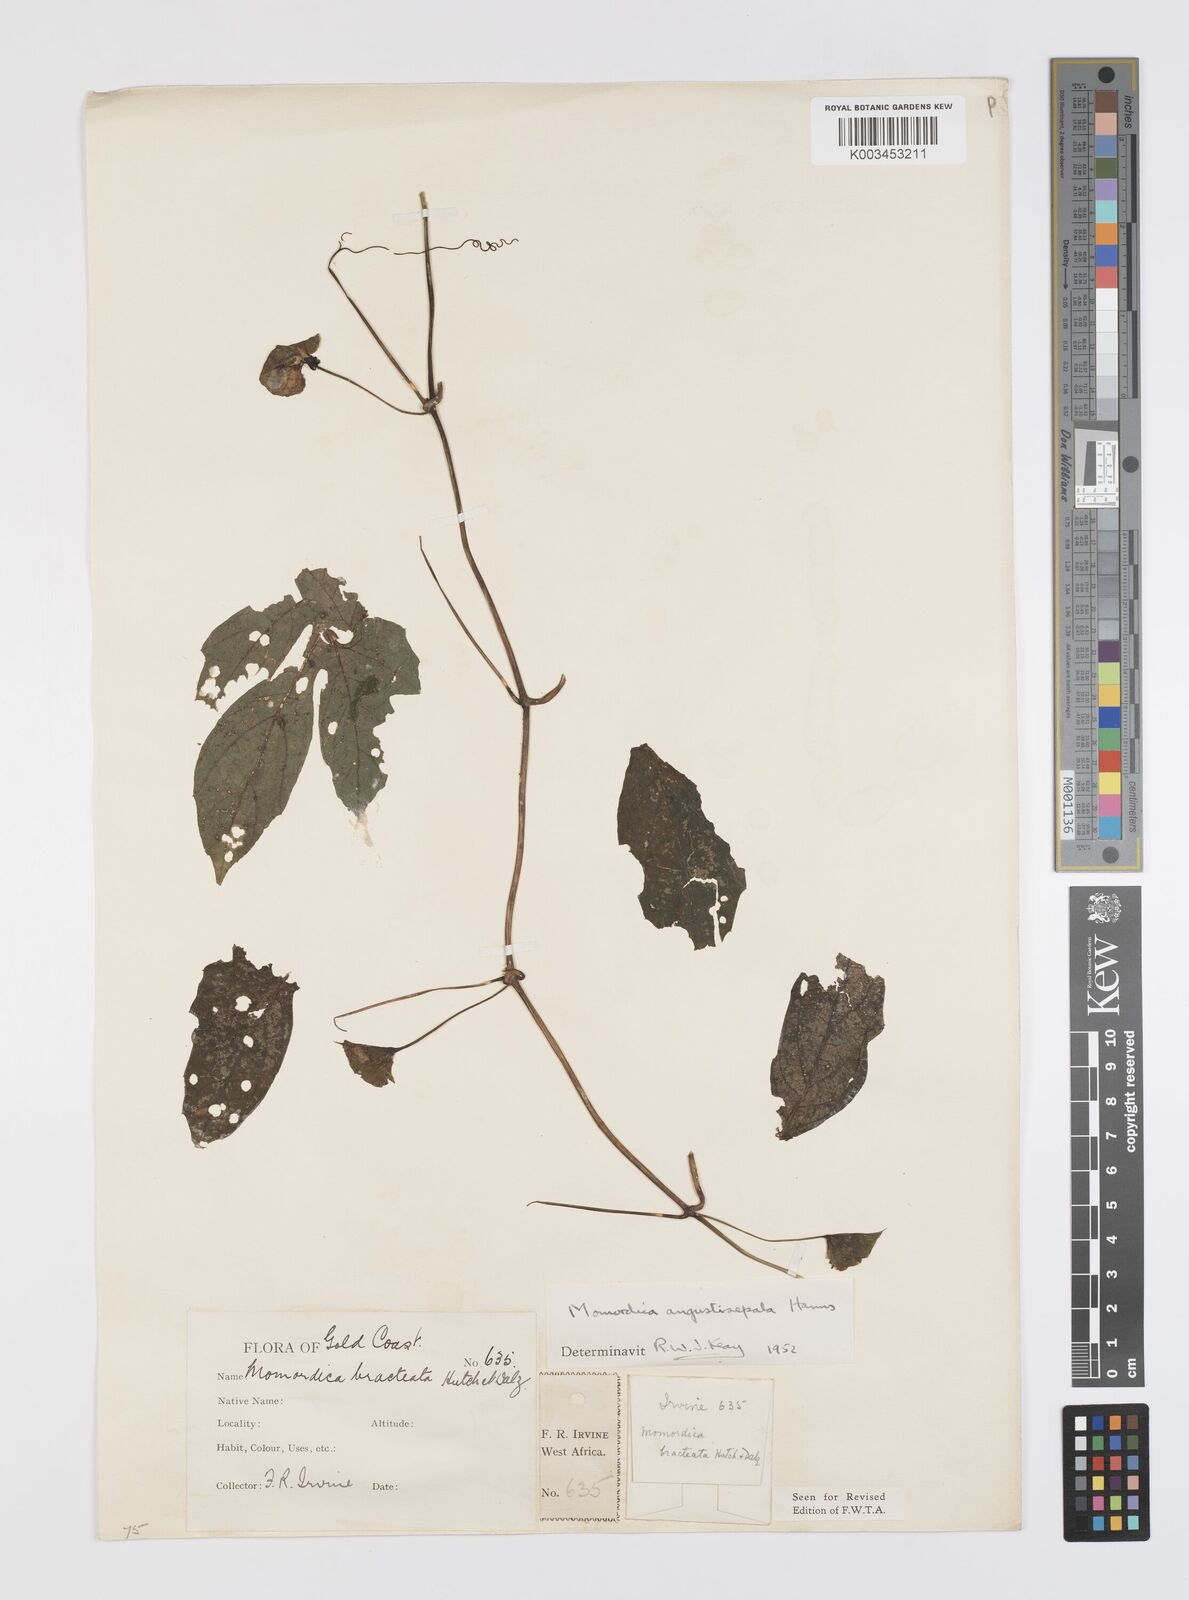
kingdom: Plantae
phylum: Tracheophyta
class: Magnoliopsida
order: Cucurbitales
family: Cucurbitaceae
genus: Momordica
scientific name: Momordica angustisepala
